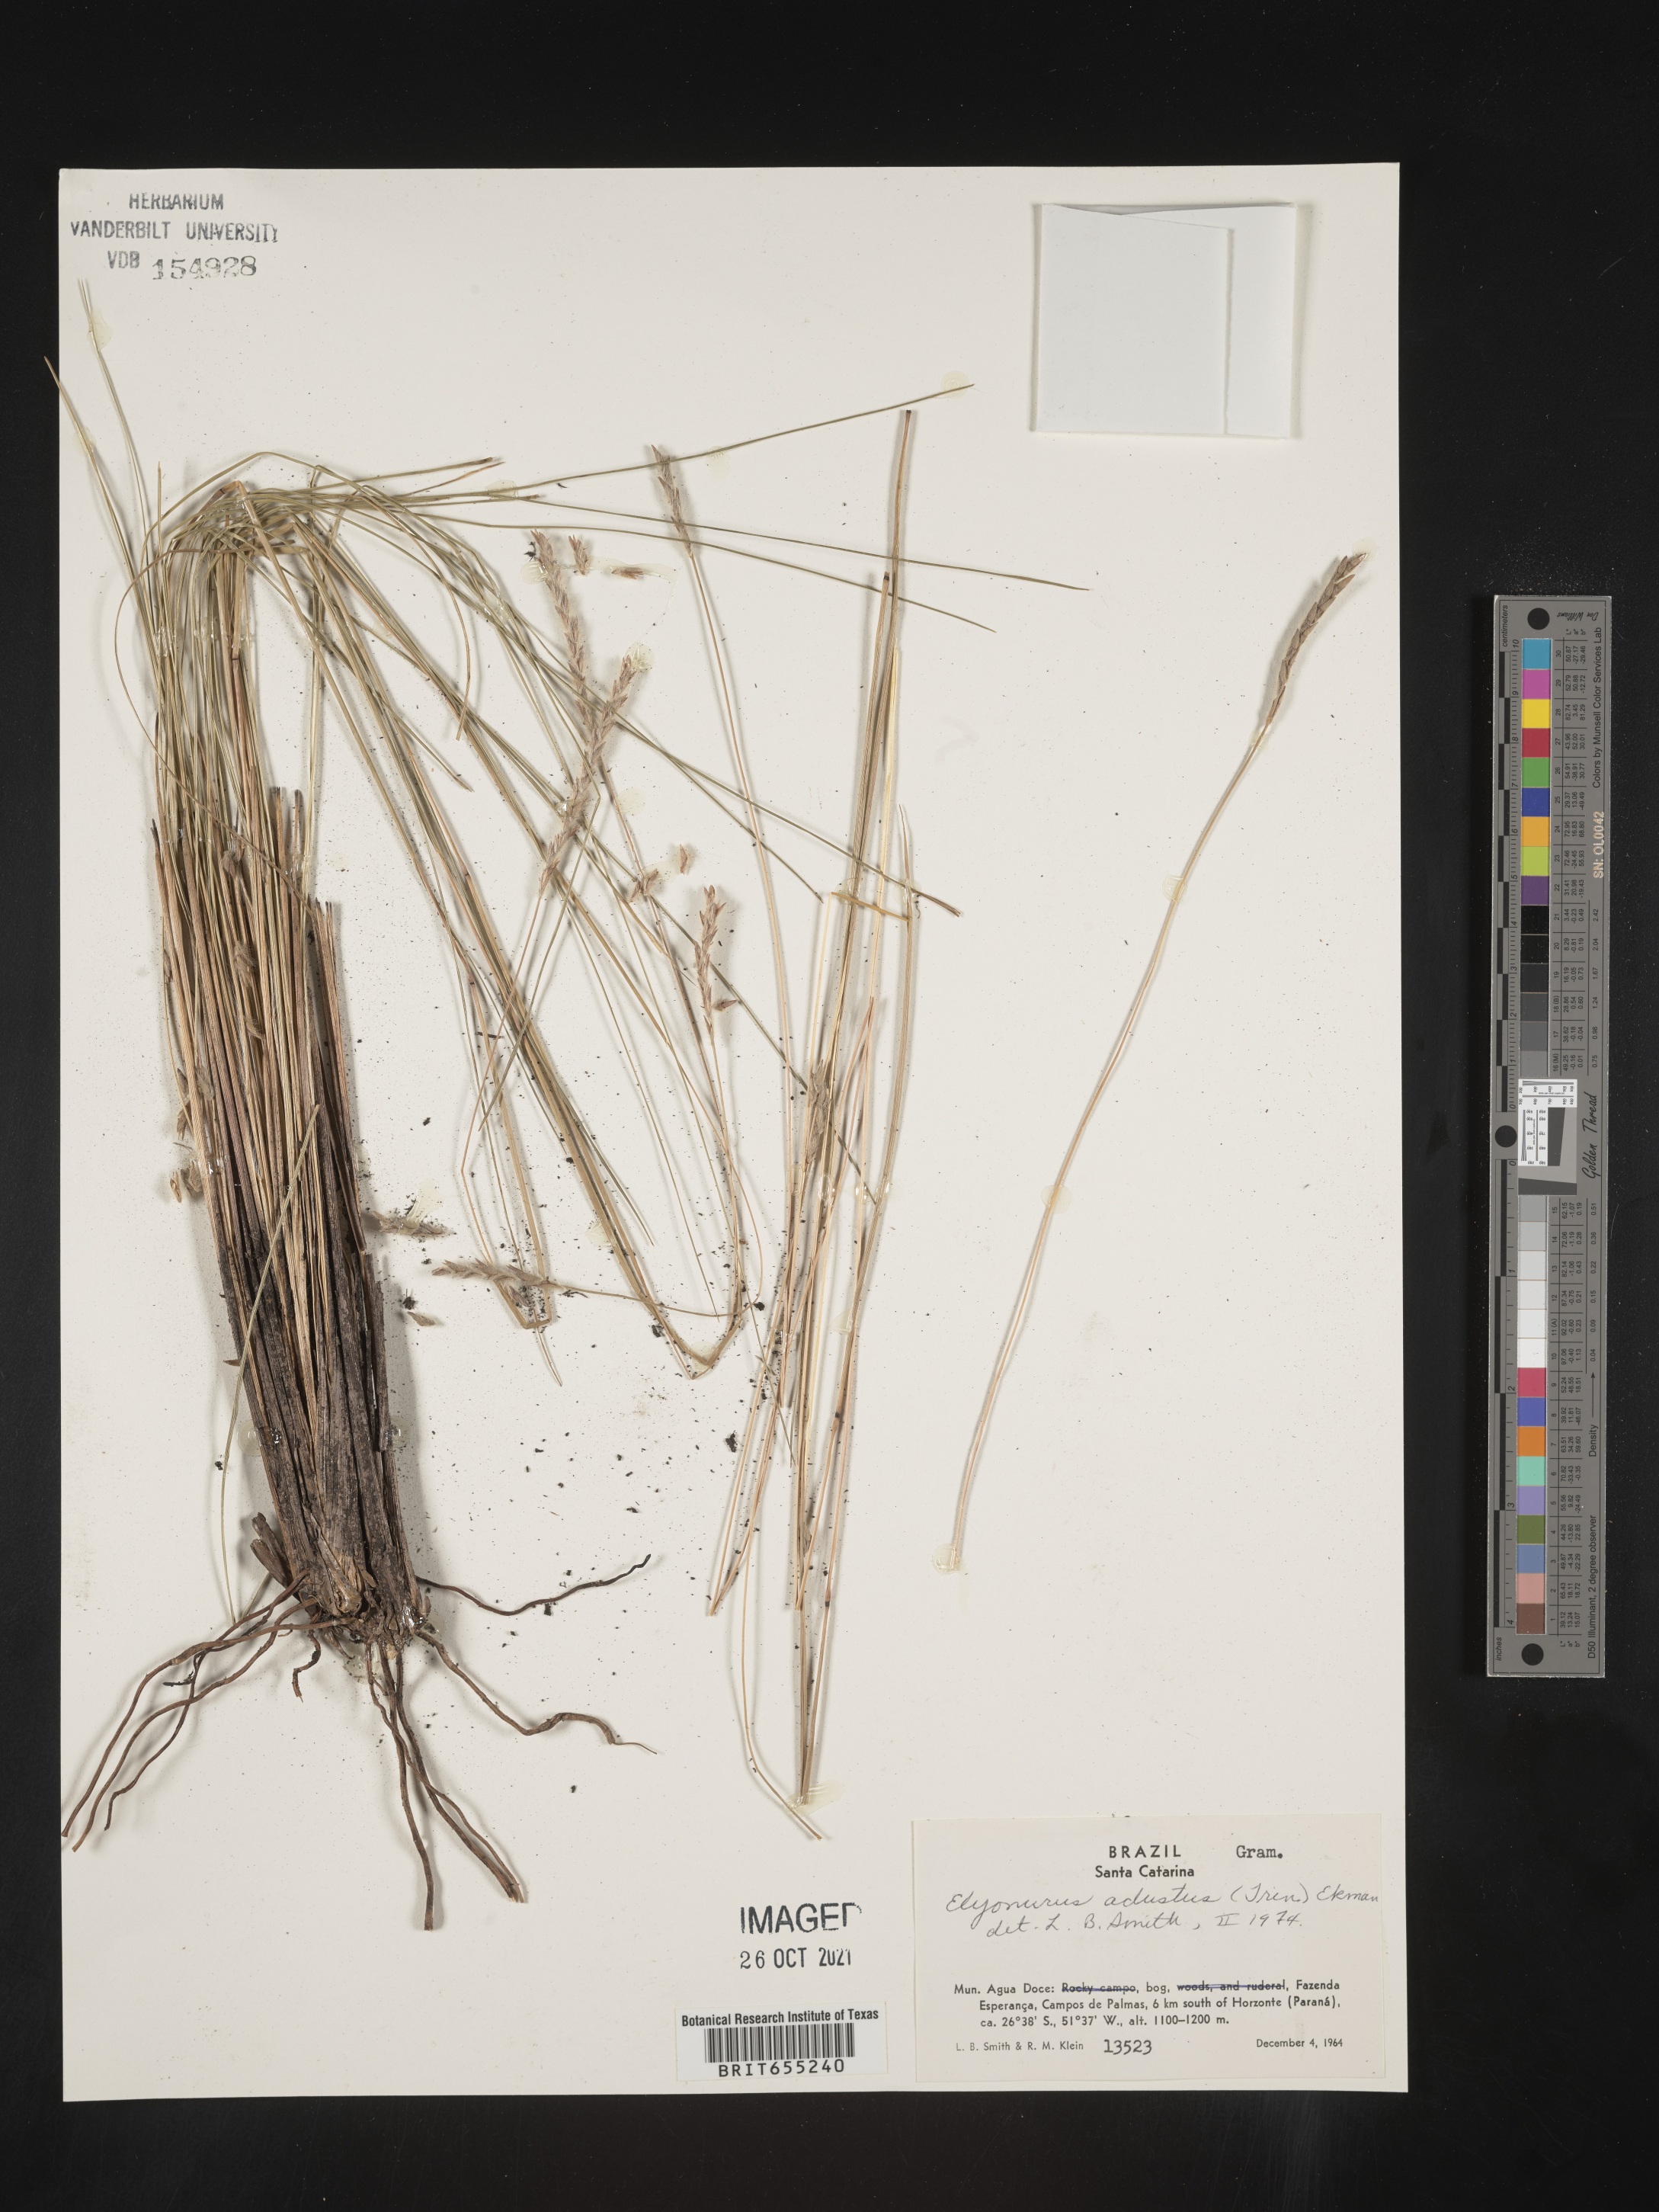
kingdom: Plantae
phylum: Tracheophyta
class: Liliopsida
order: Poales
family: Poaceae
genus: Elionurus
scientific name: Elionurus
